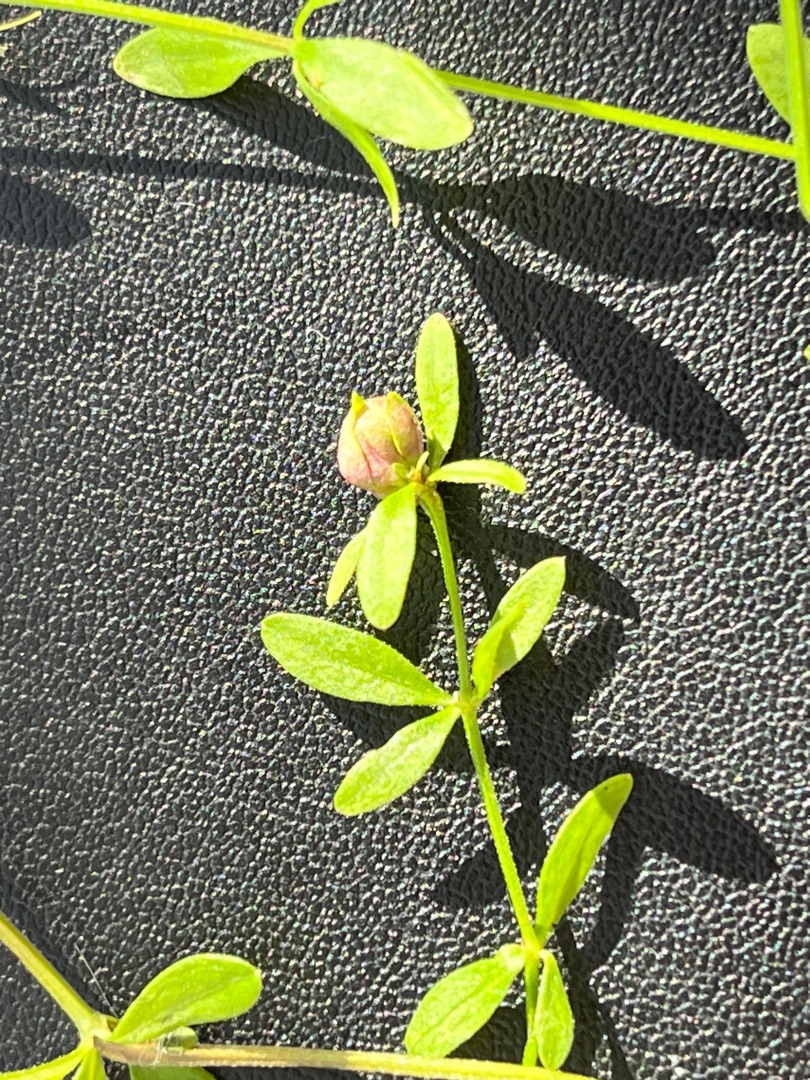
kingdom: Animalia
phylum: Arthropoda
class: Insecta
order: Diptera
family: Cecidomyiidae
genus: Dasineura
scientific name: Dasineura hygrophila
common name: Kærsnerregalmyg
